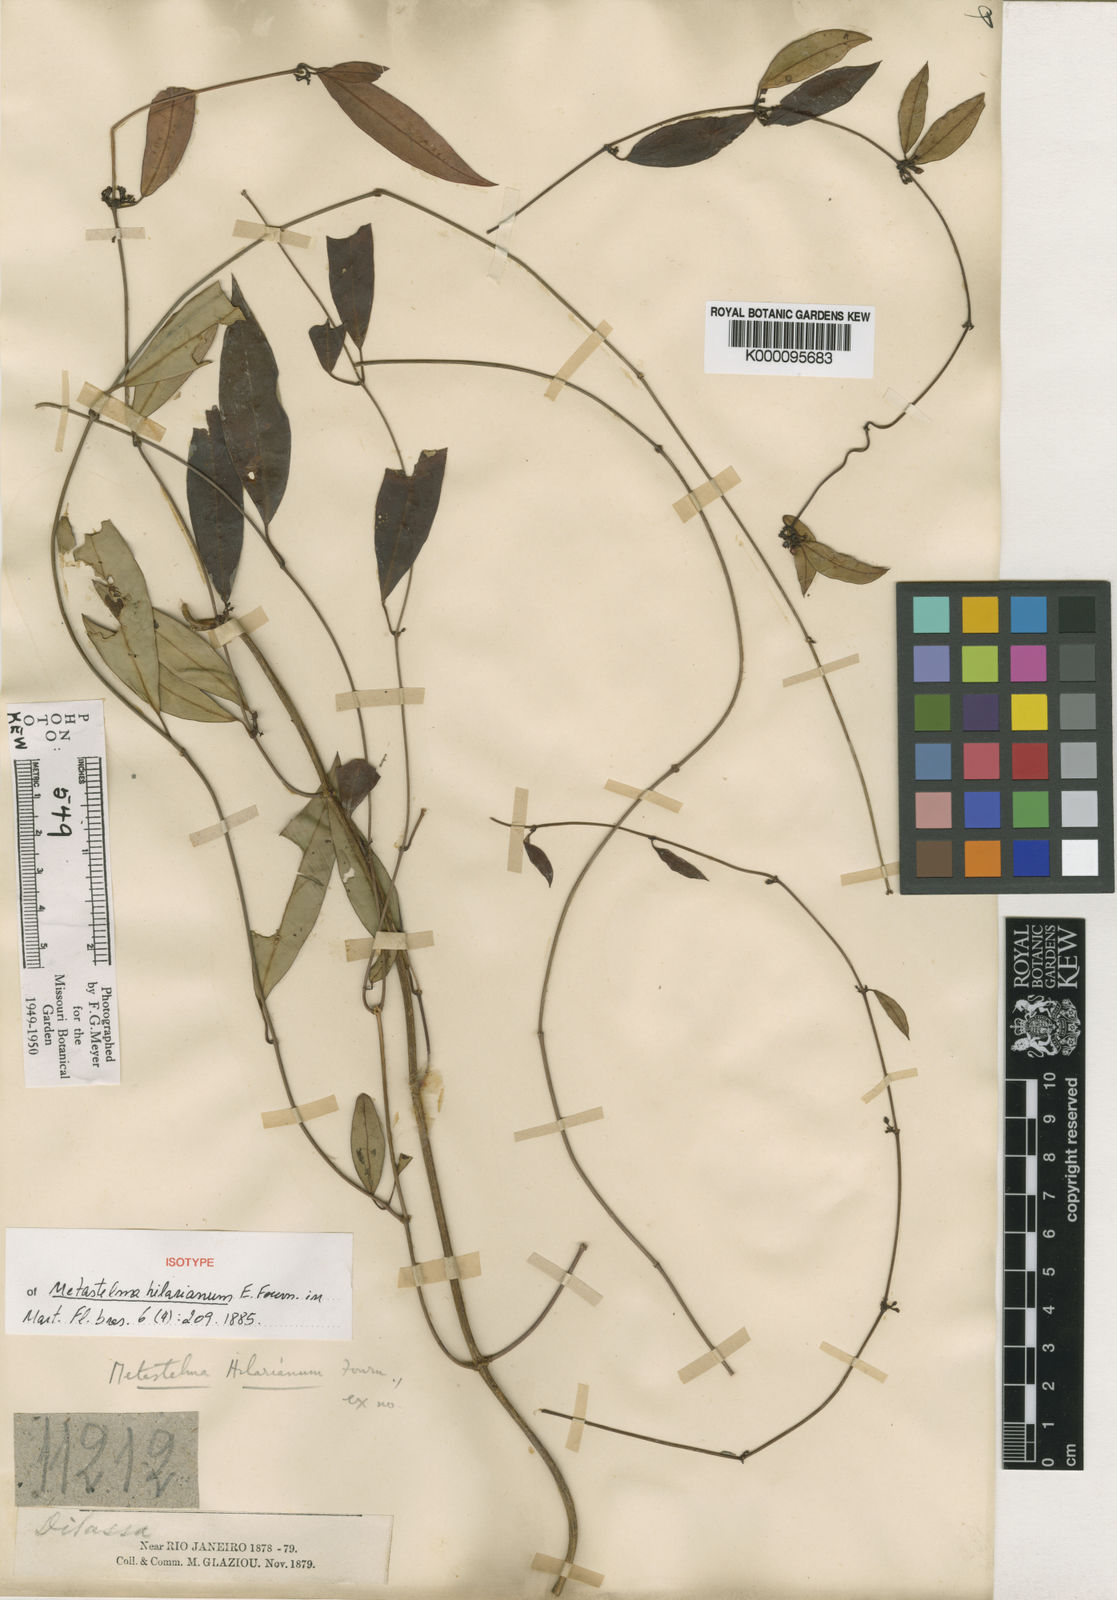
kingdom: Plantae
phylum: Tracheophyta
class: Magnoliopsida
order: Gentianales
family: Apocynaceae
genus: Peplonia
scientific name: Peplonia organensis
